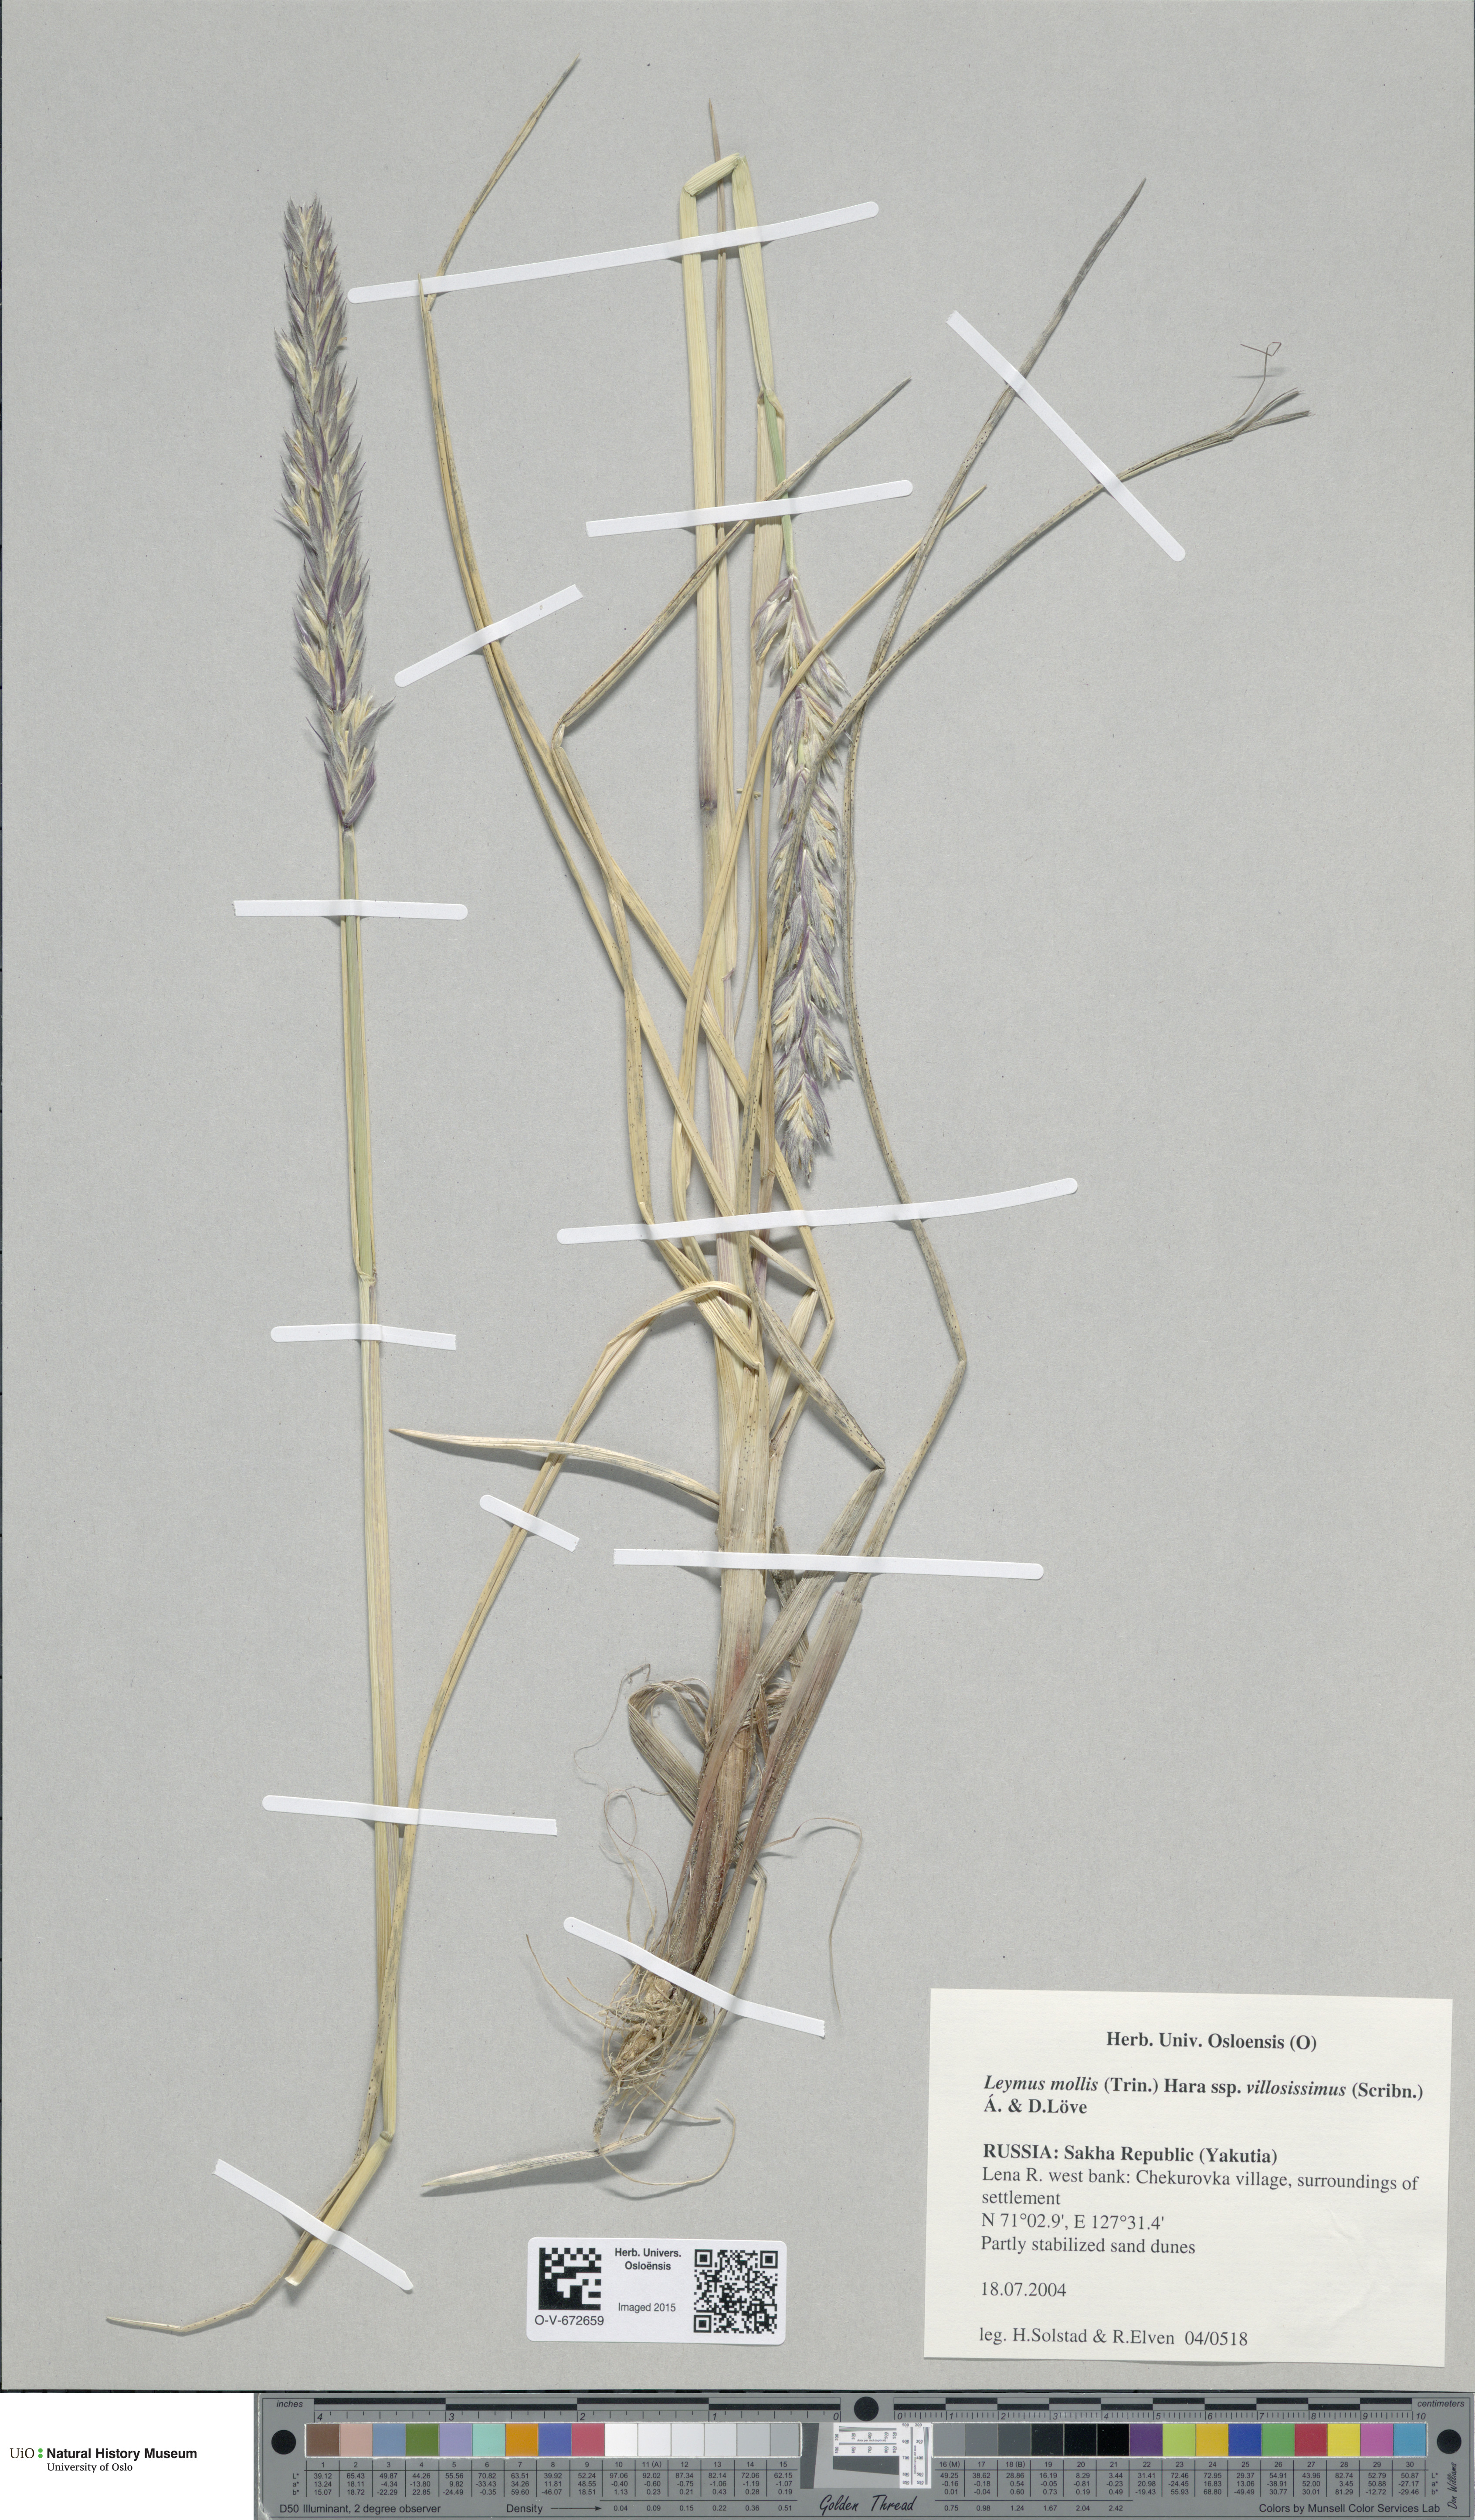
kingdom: Plantae
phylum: Tracheophyta
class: Liliopsida
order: Poales
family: Poaceae
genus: Leymus
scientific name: Leymus mollis
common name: American dune grass
